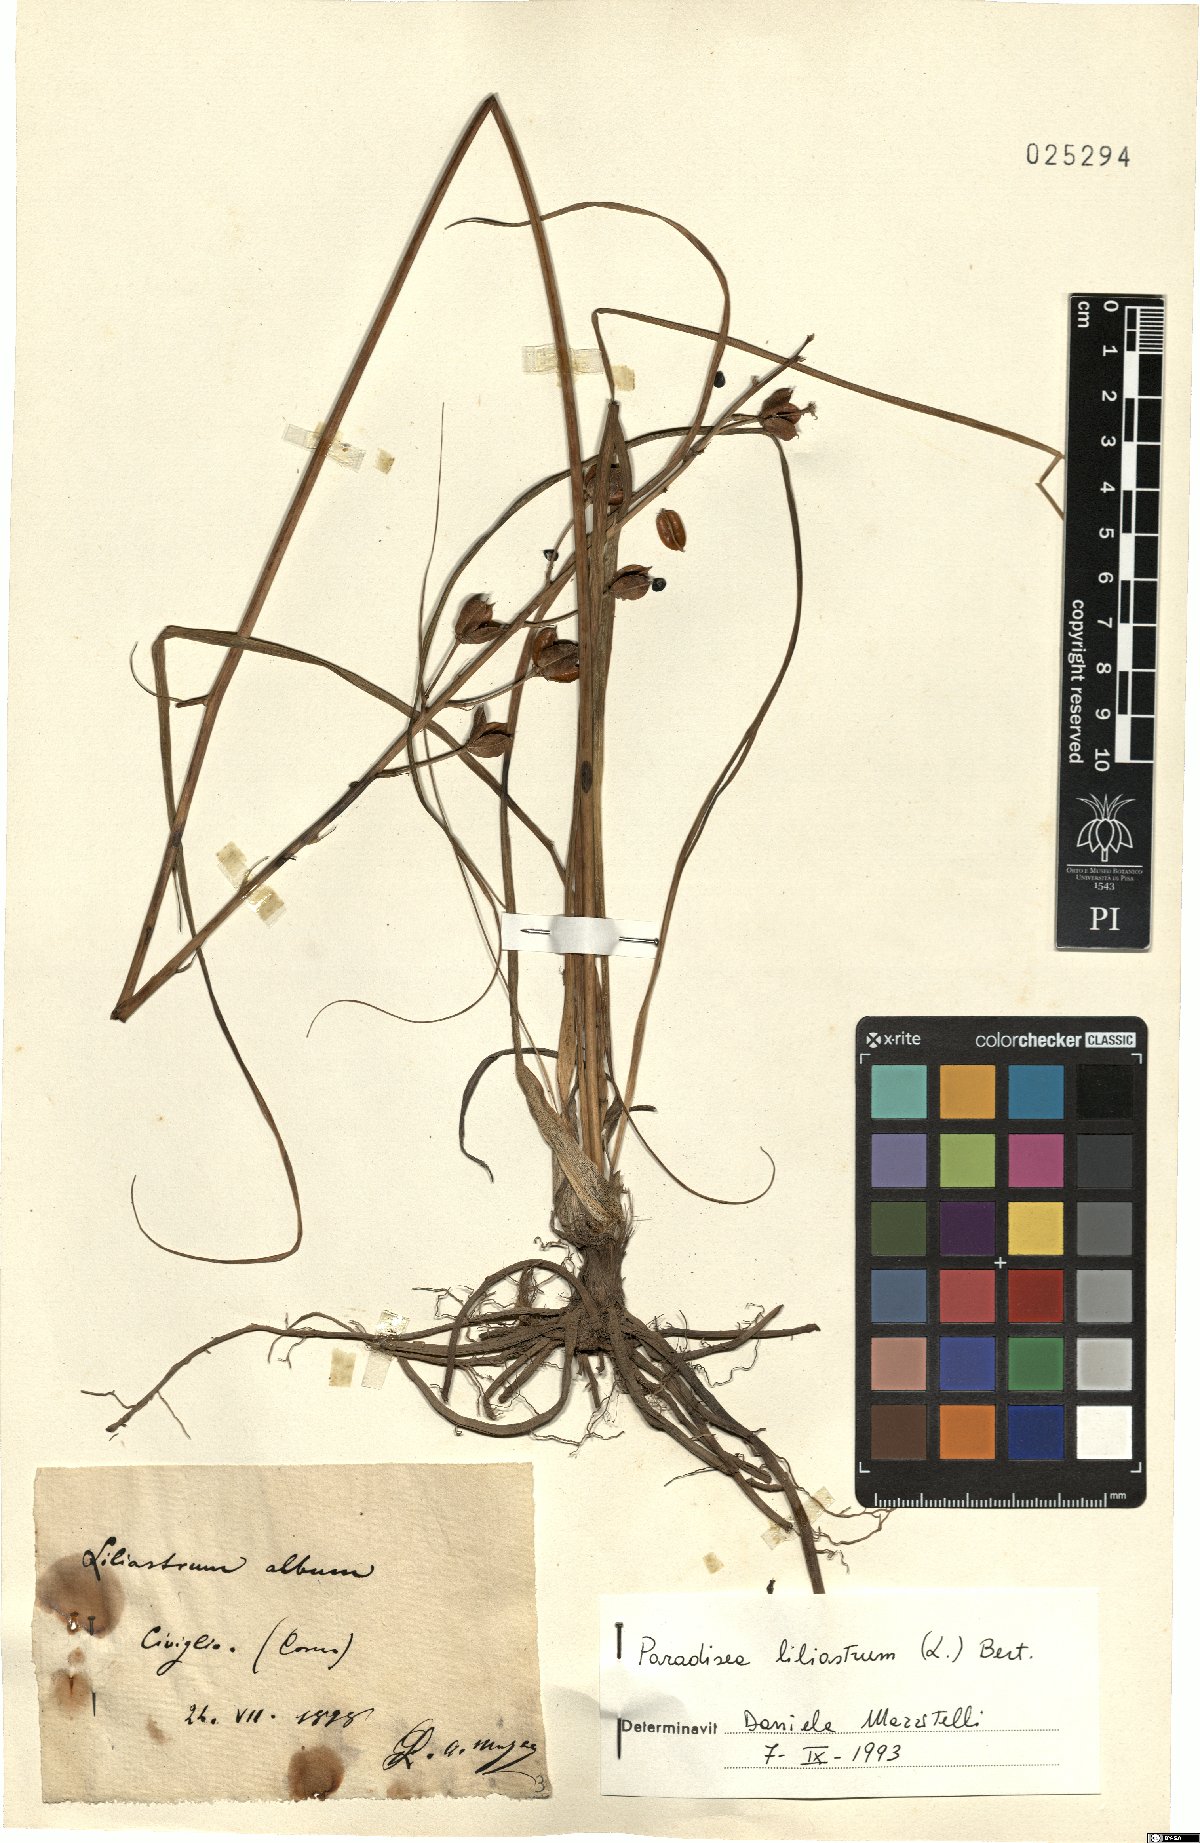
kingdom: Plantae
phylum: Tracheophyta
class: Liliopsida
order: Asparagales
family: Asparagaceae
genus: Paradisea
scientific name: Paradisea liliastrum
